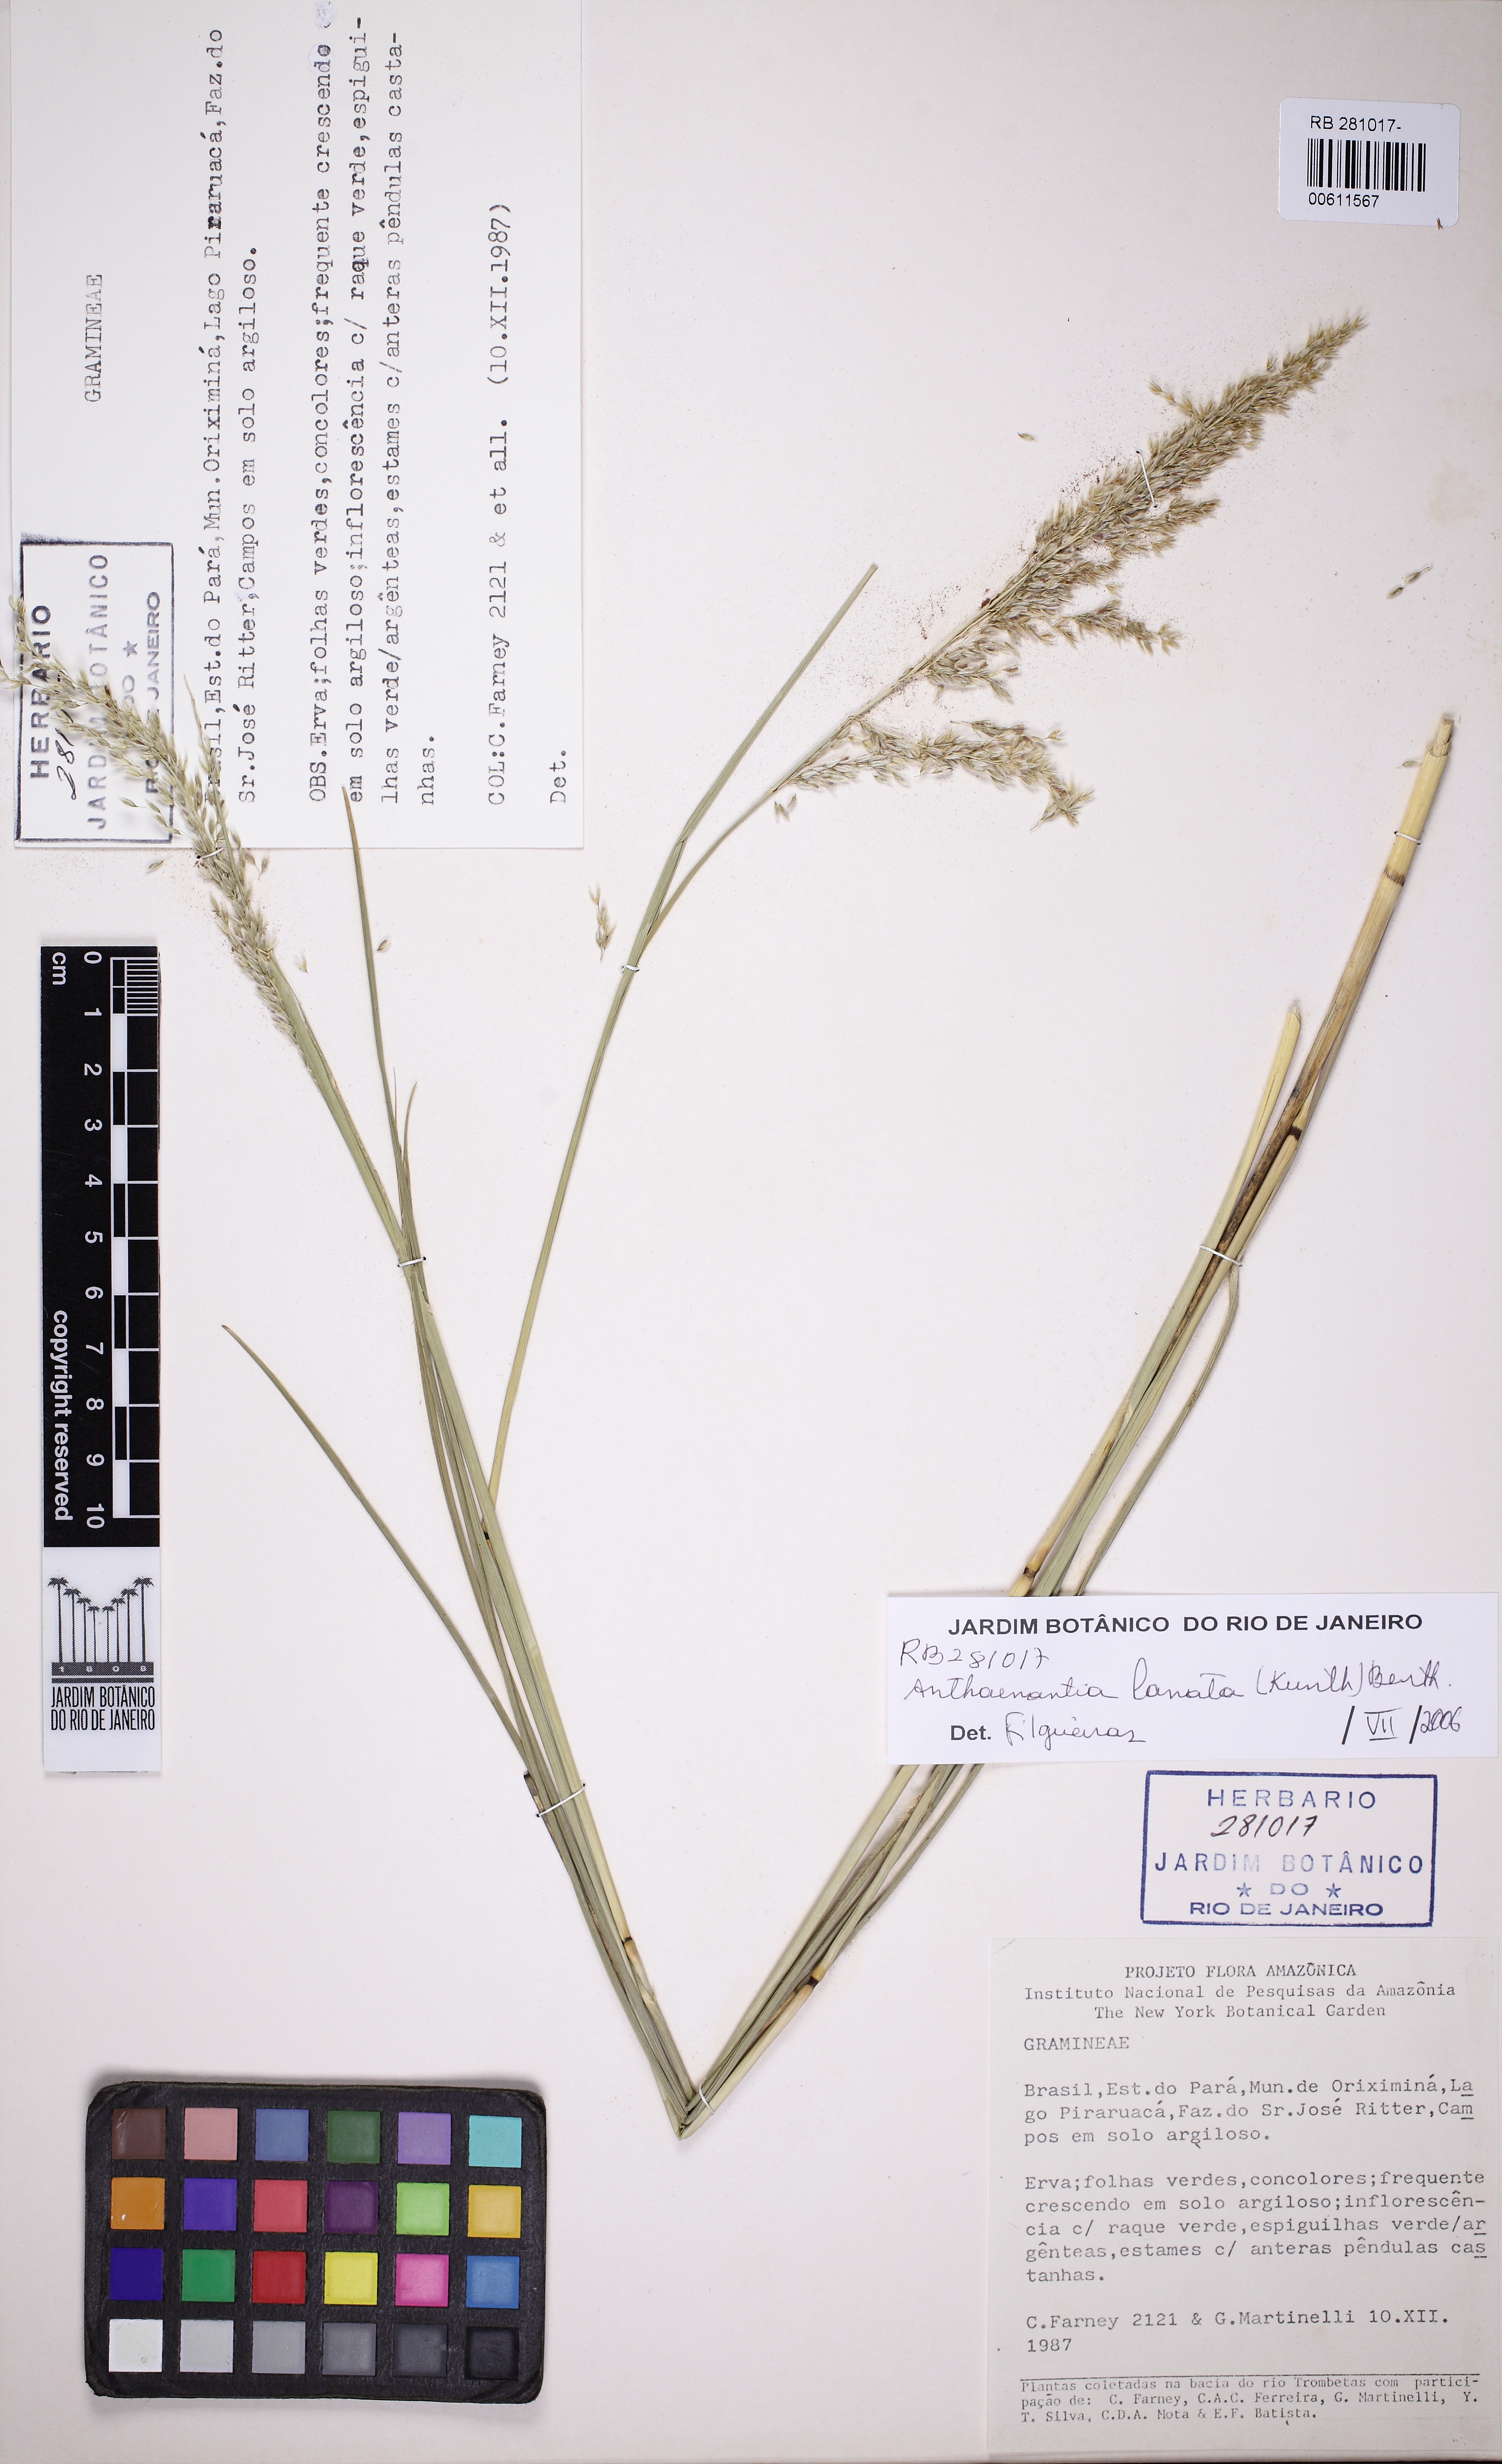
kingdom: Plantae
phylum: Tracheophyta
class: Liliopsida
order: Poales
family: Poaceae
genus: Anthaenantia
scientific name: Anthaenantia lanata
